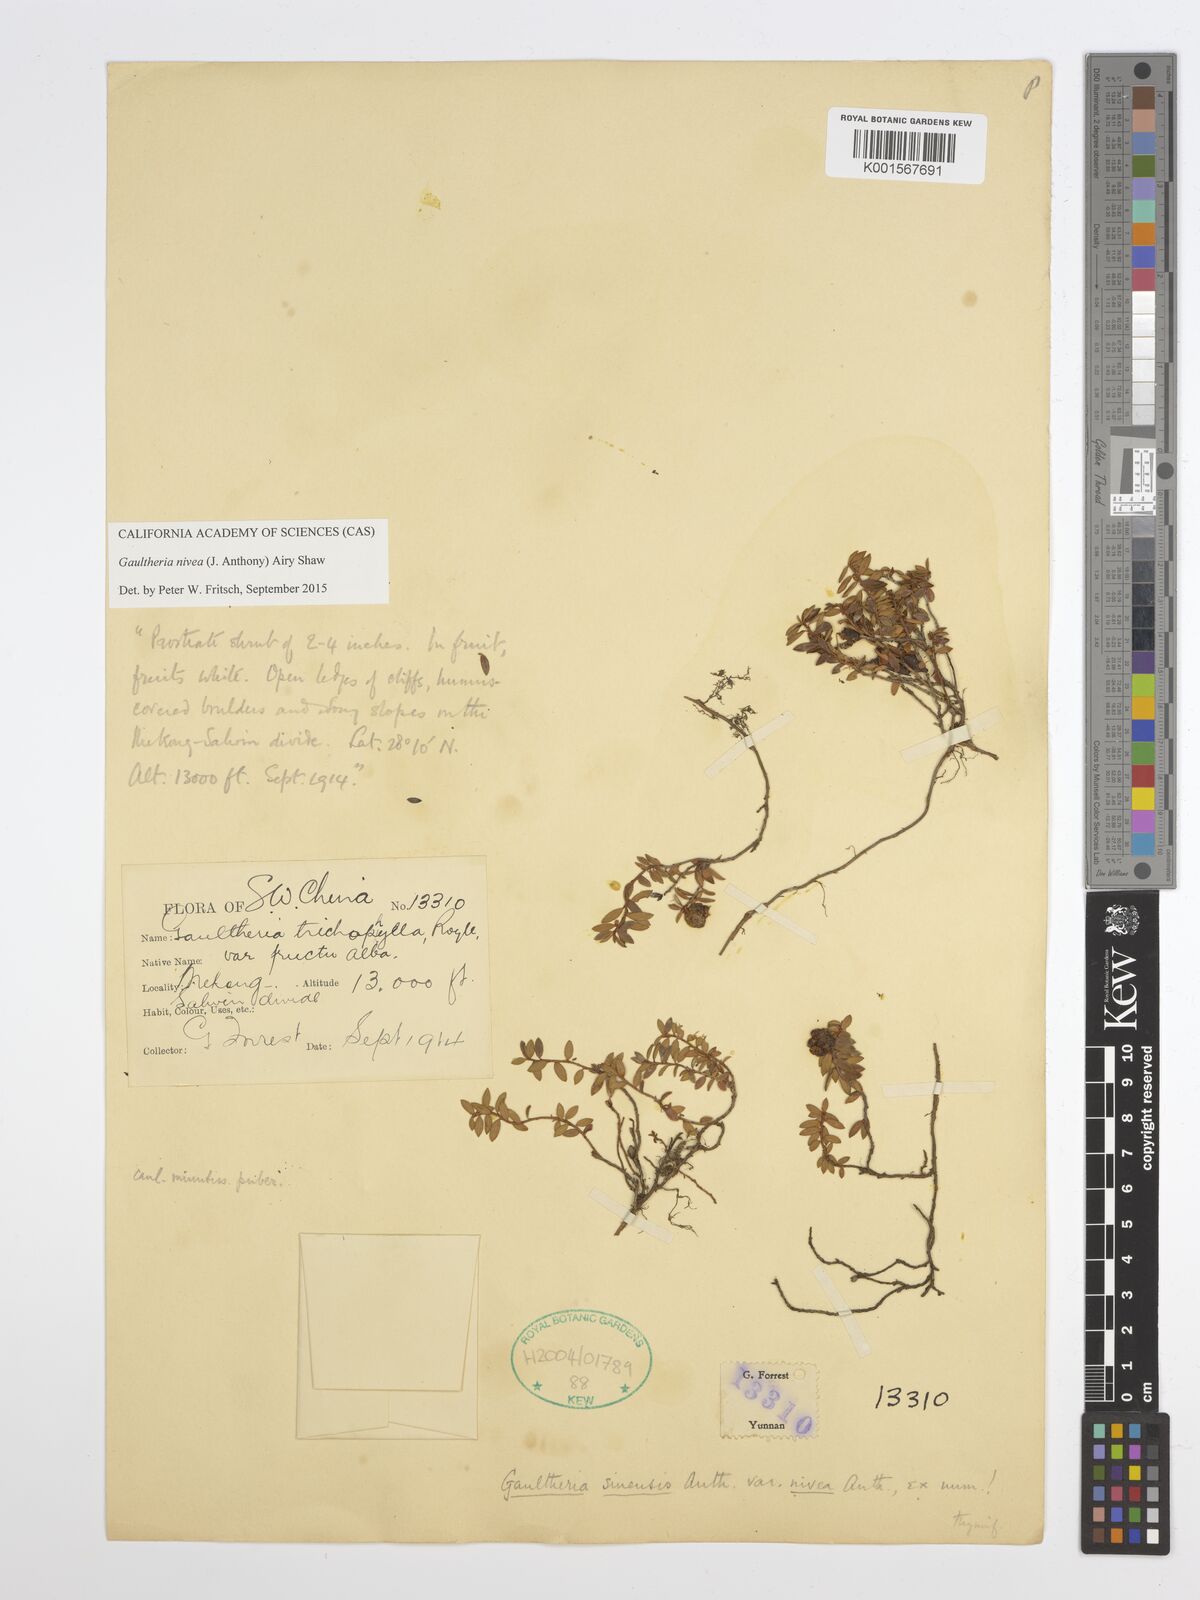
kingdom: Plantae
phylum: Tracheophyta
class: Magnoliopsida
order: Ericales
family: Ericaceae
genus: Gaultheria
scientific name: Gaultheria nivea
